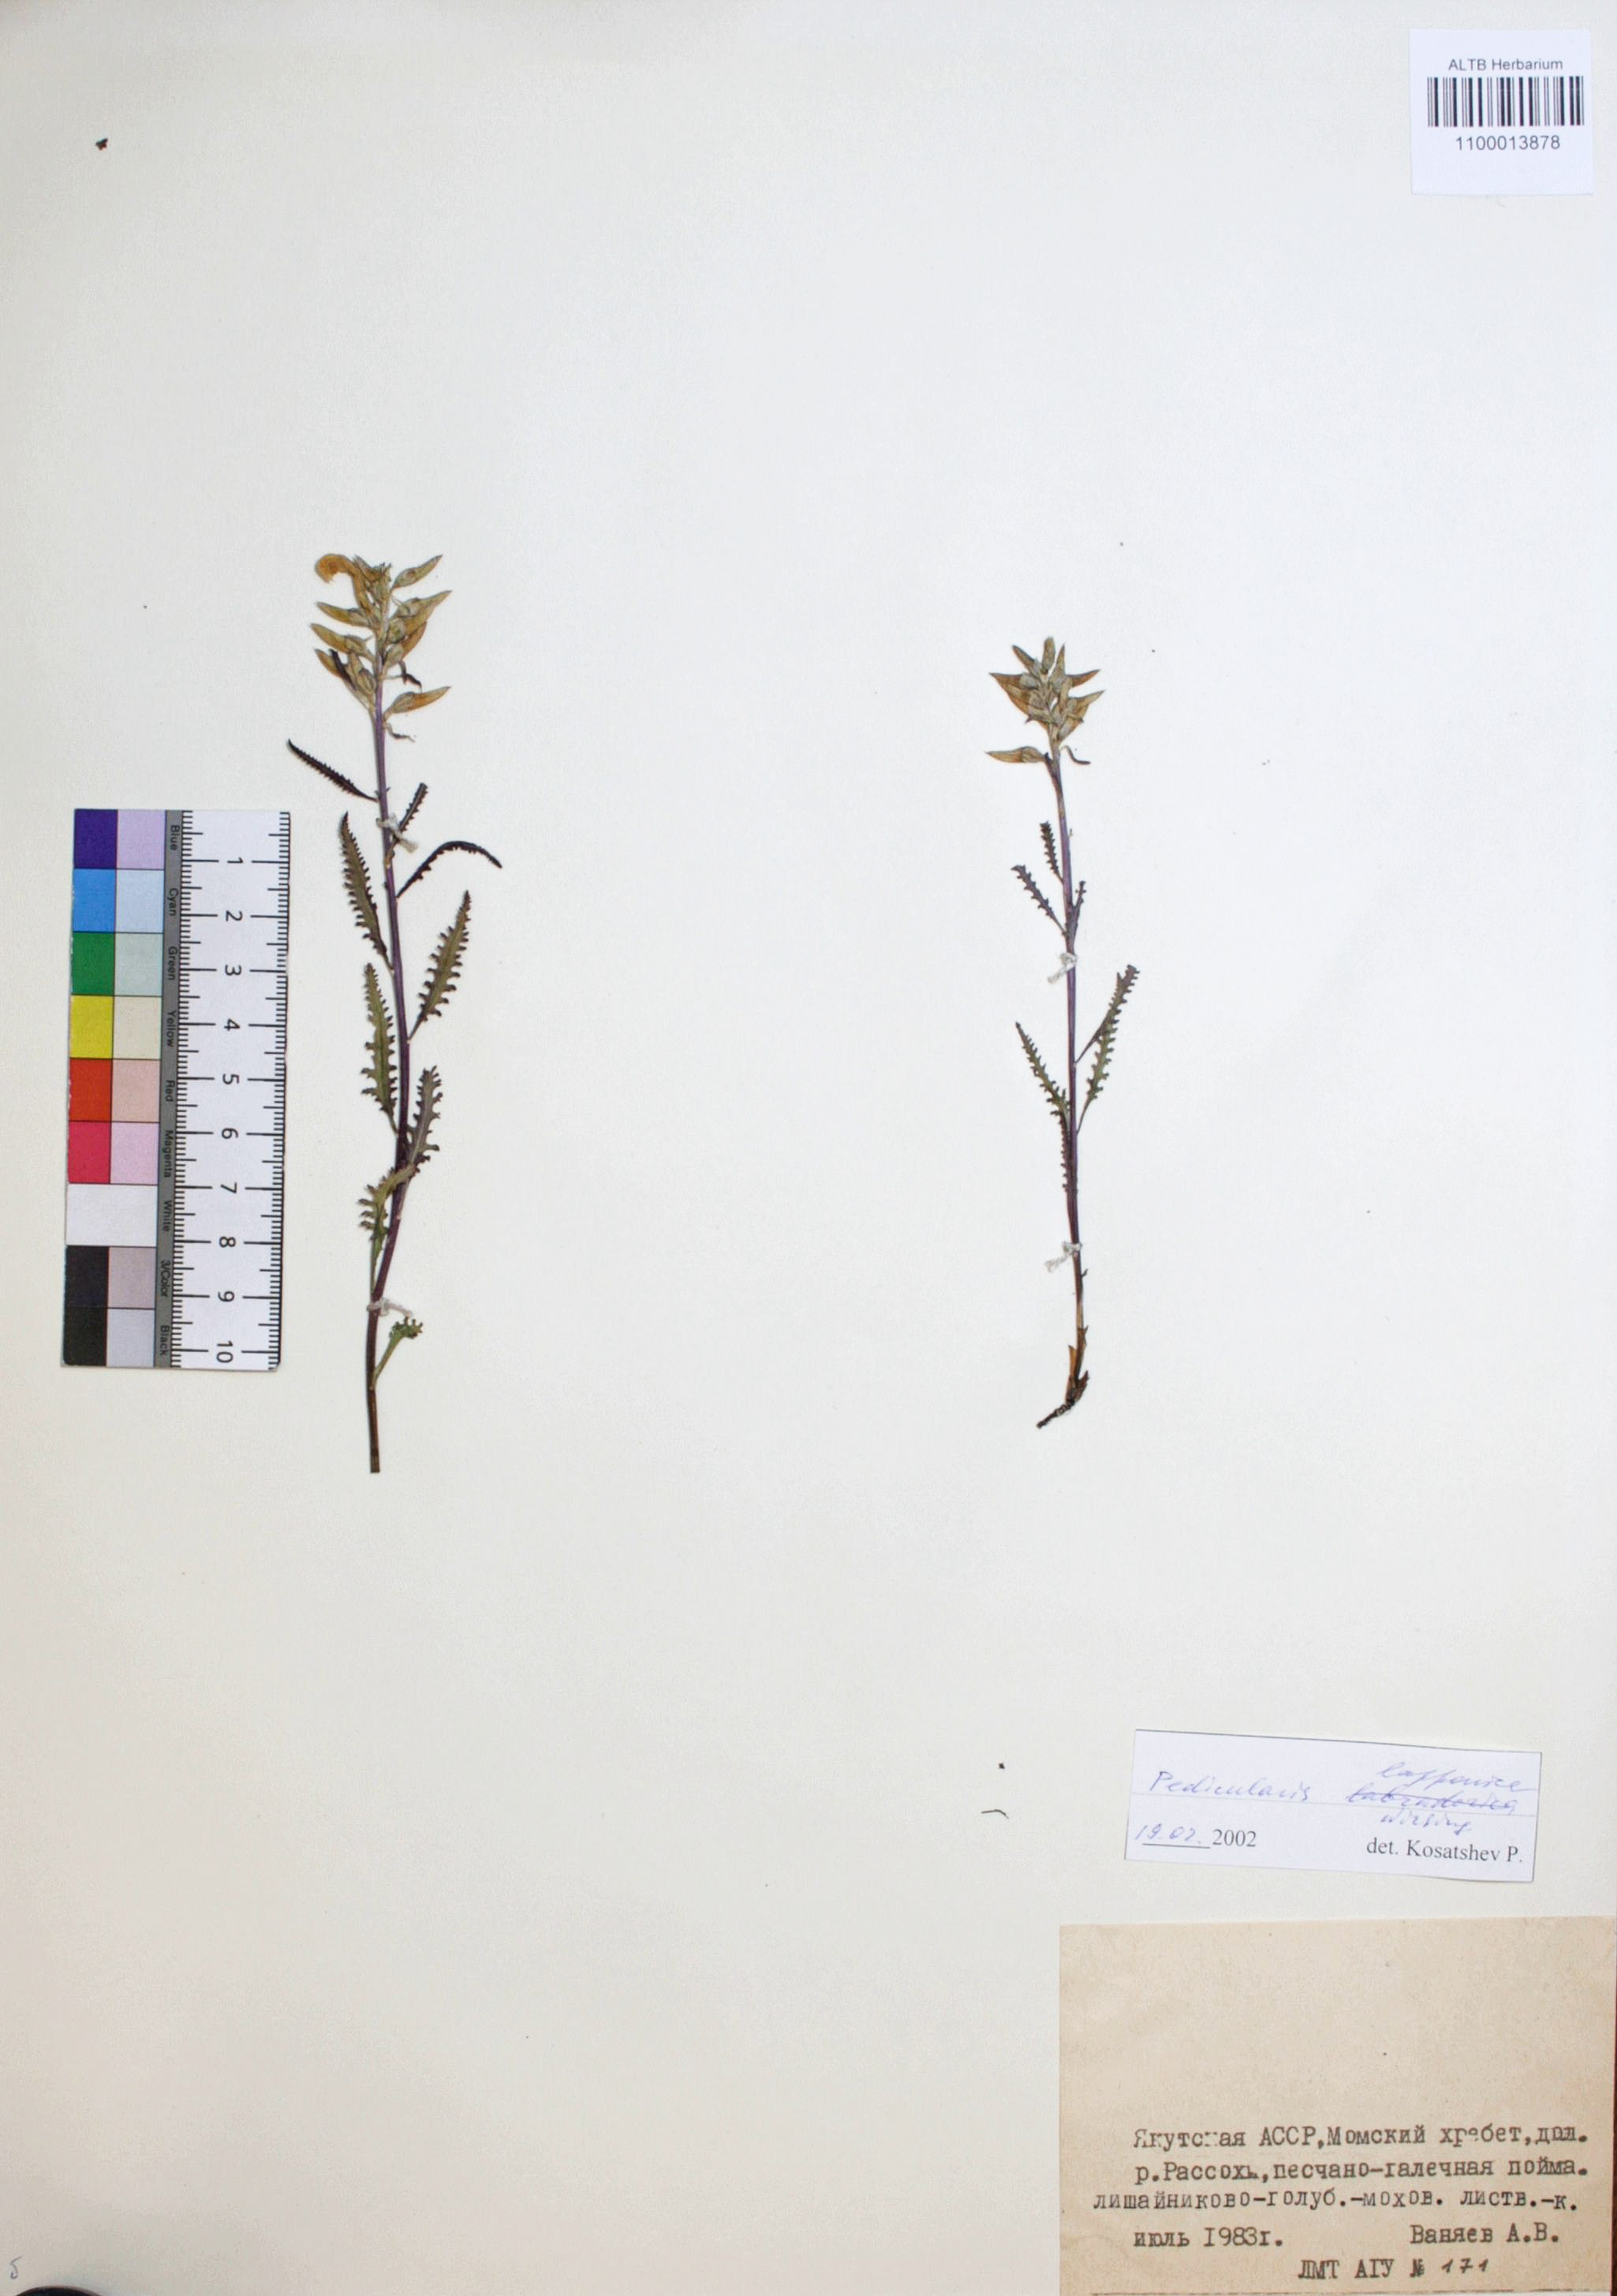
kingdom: Plantae
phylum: Tracheophyta
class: Magnoliopsida
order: Lamiales
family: Orobanchaceae
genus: Pedicularis
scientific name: Pedicularis lapponica
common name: Lapland lousewort
